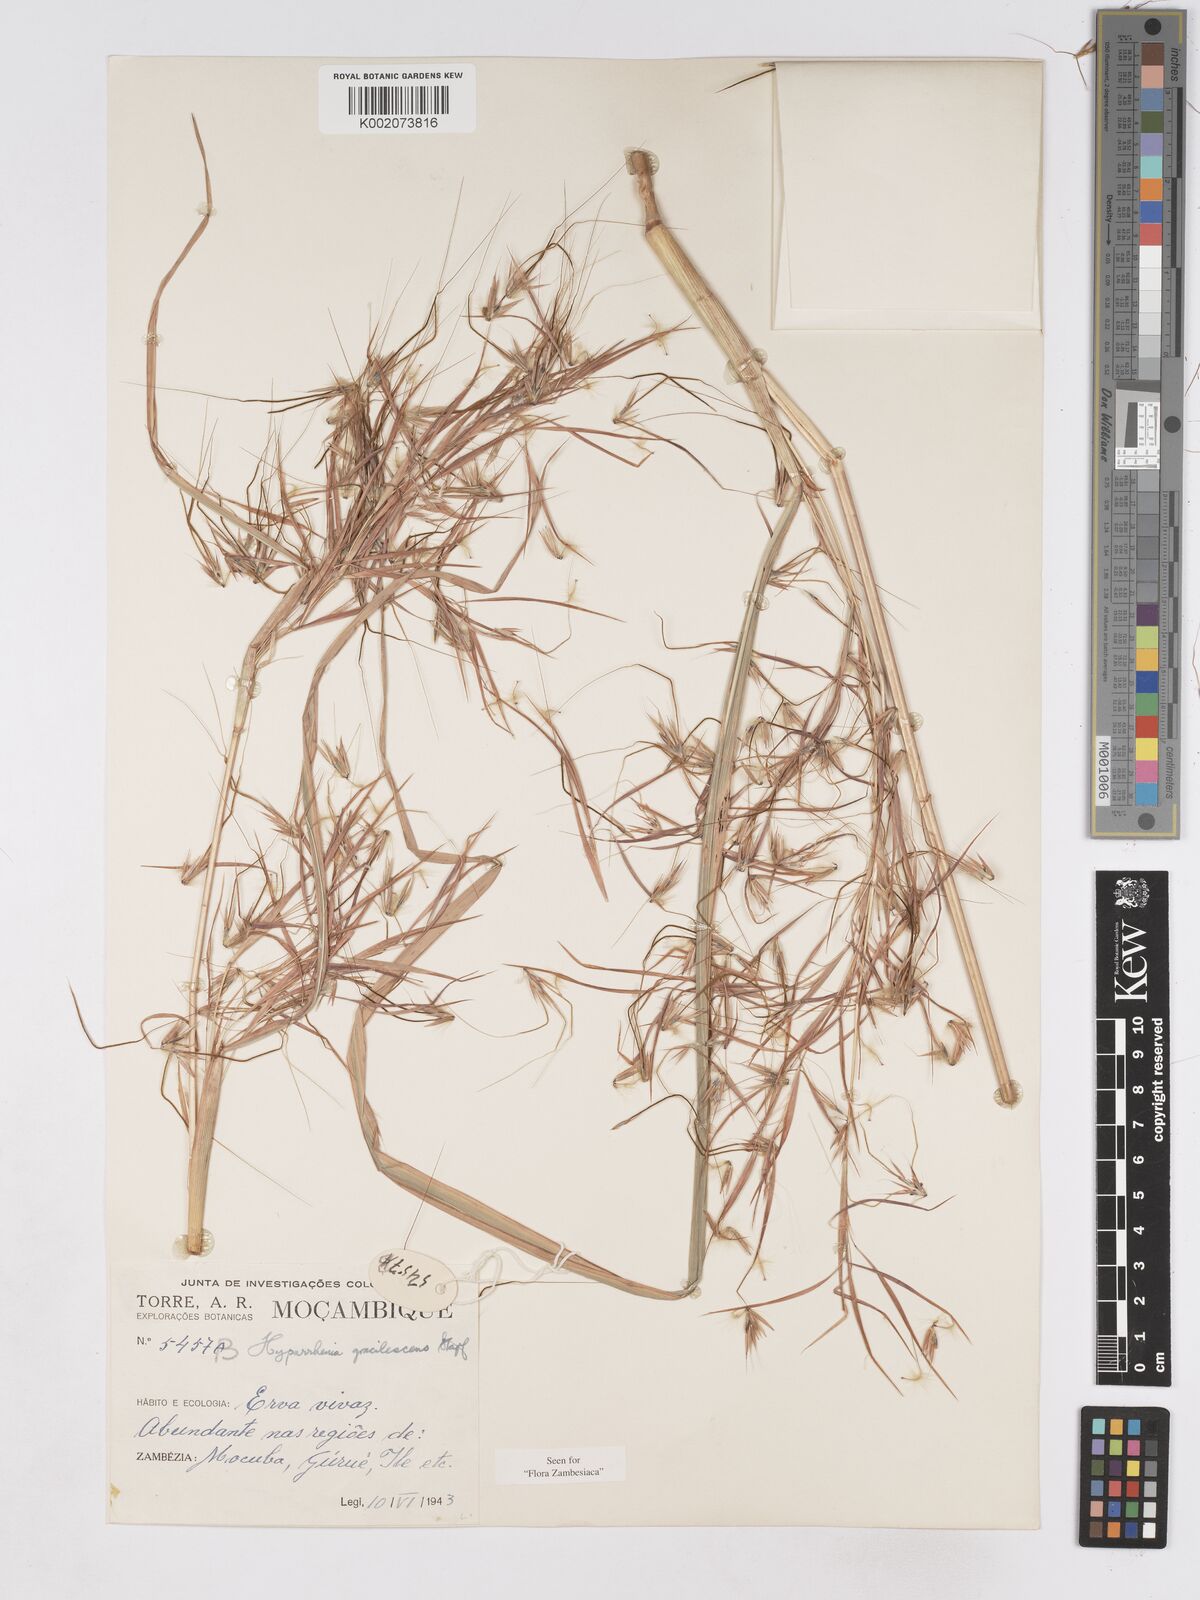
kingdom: Plantae
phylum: Tracheophyta
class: Liliopsida
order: Poales
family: Poaceae
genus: Hyparrhenia
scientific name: Hyparrhenia welwitschii
